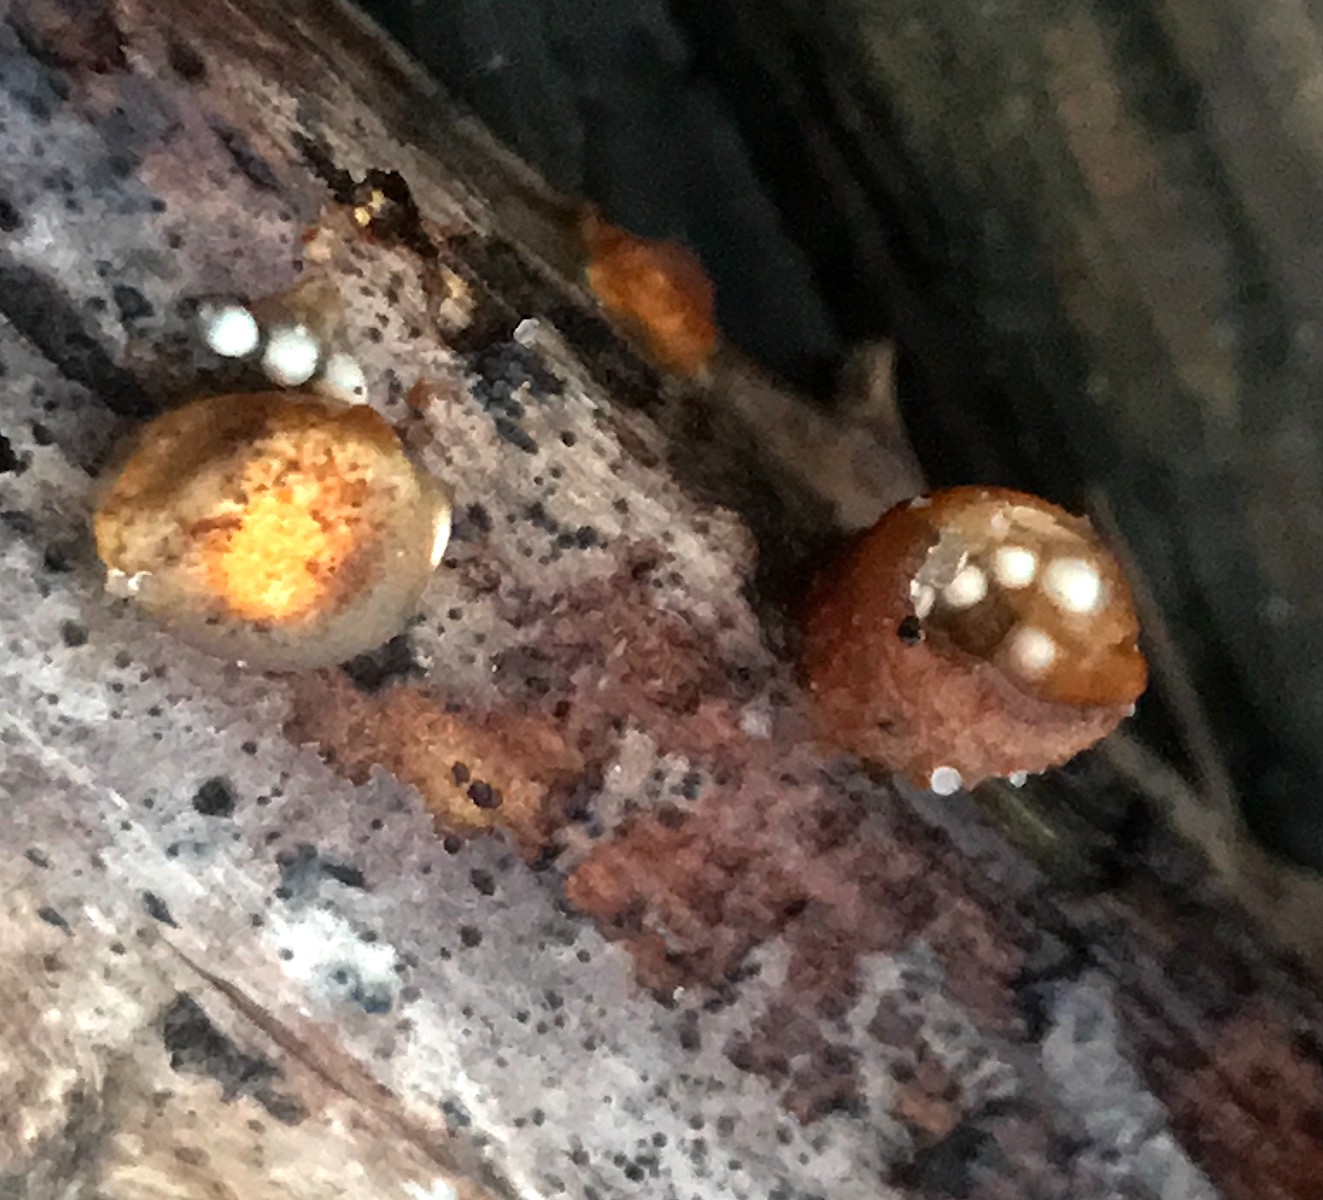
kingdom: Fungi
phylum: Basidiomycota
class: Agaricomycetes
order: Agaricales
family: Nidulariaceae
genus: Crucibulum
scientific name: Crucibulum crucibuliforme
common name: krukkesvamp
